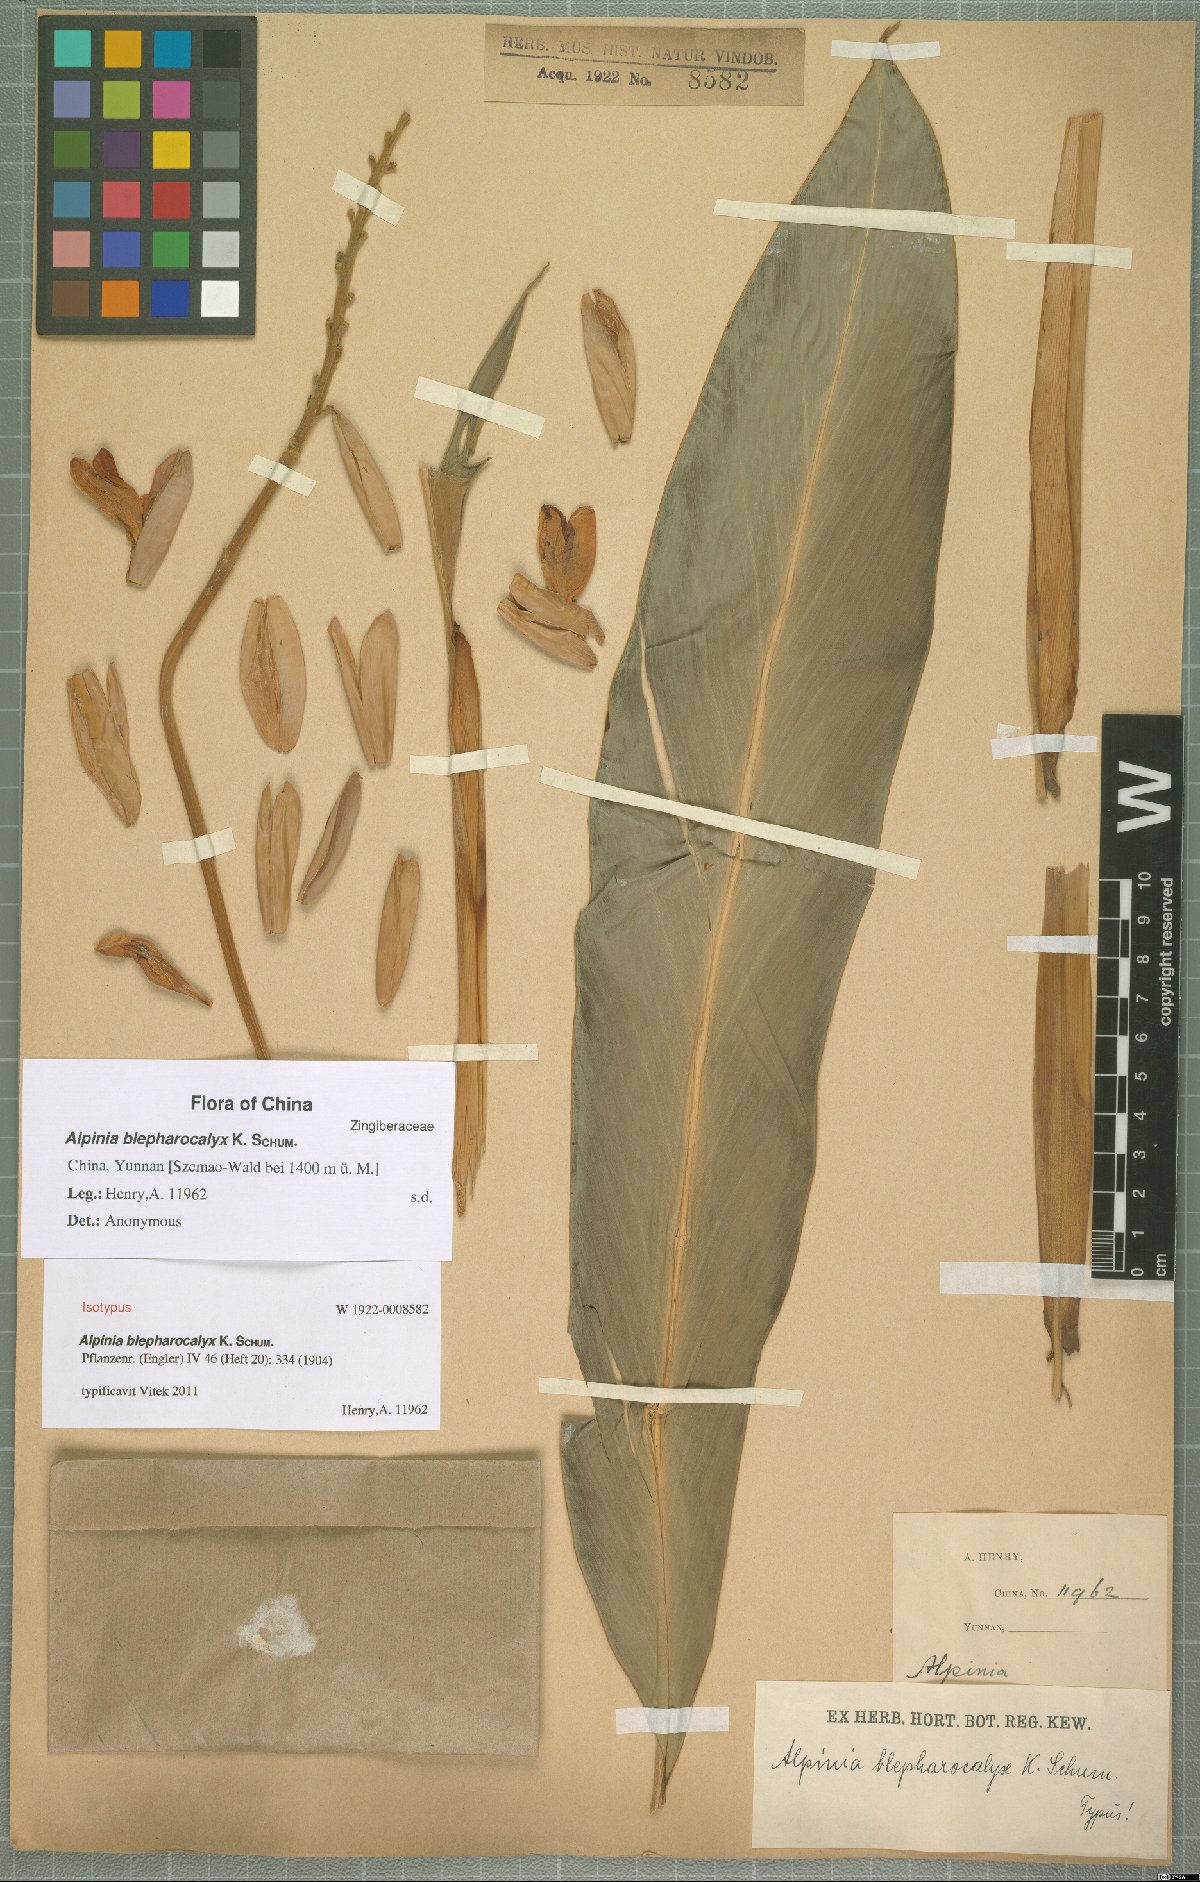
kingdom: Plantae
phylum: Tracheophyta
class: Liliopsida
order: Zingiberales
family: Zingiberaceae
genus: Alpinia
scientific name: Alpinia roxburghii
